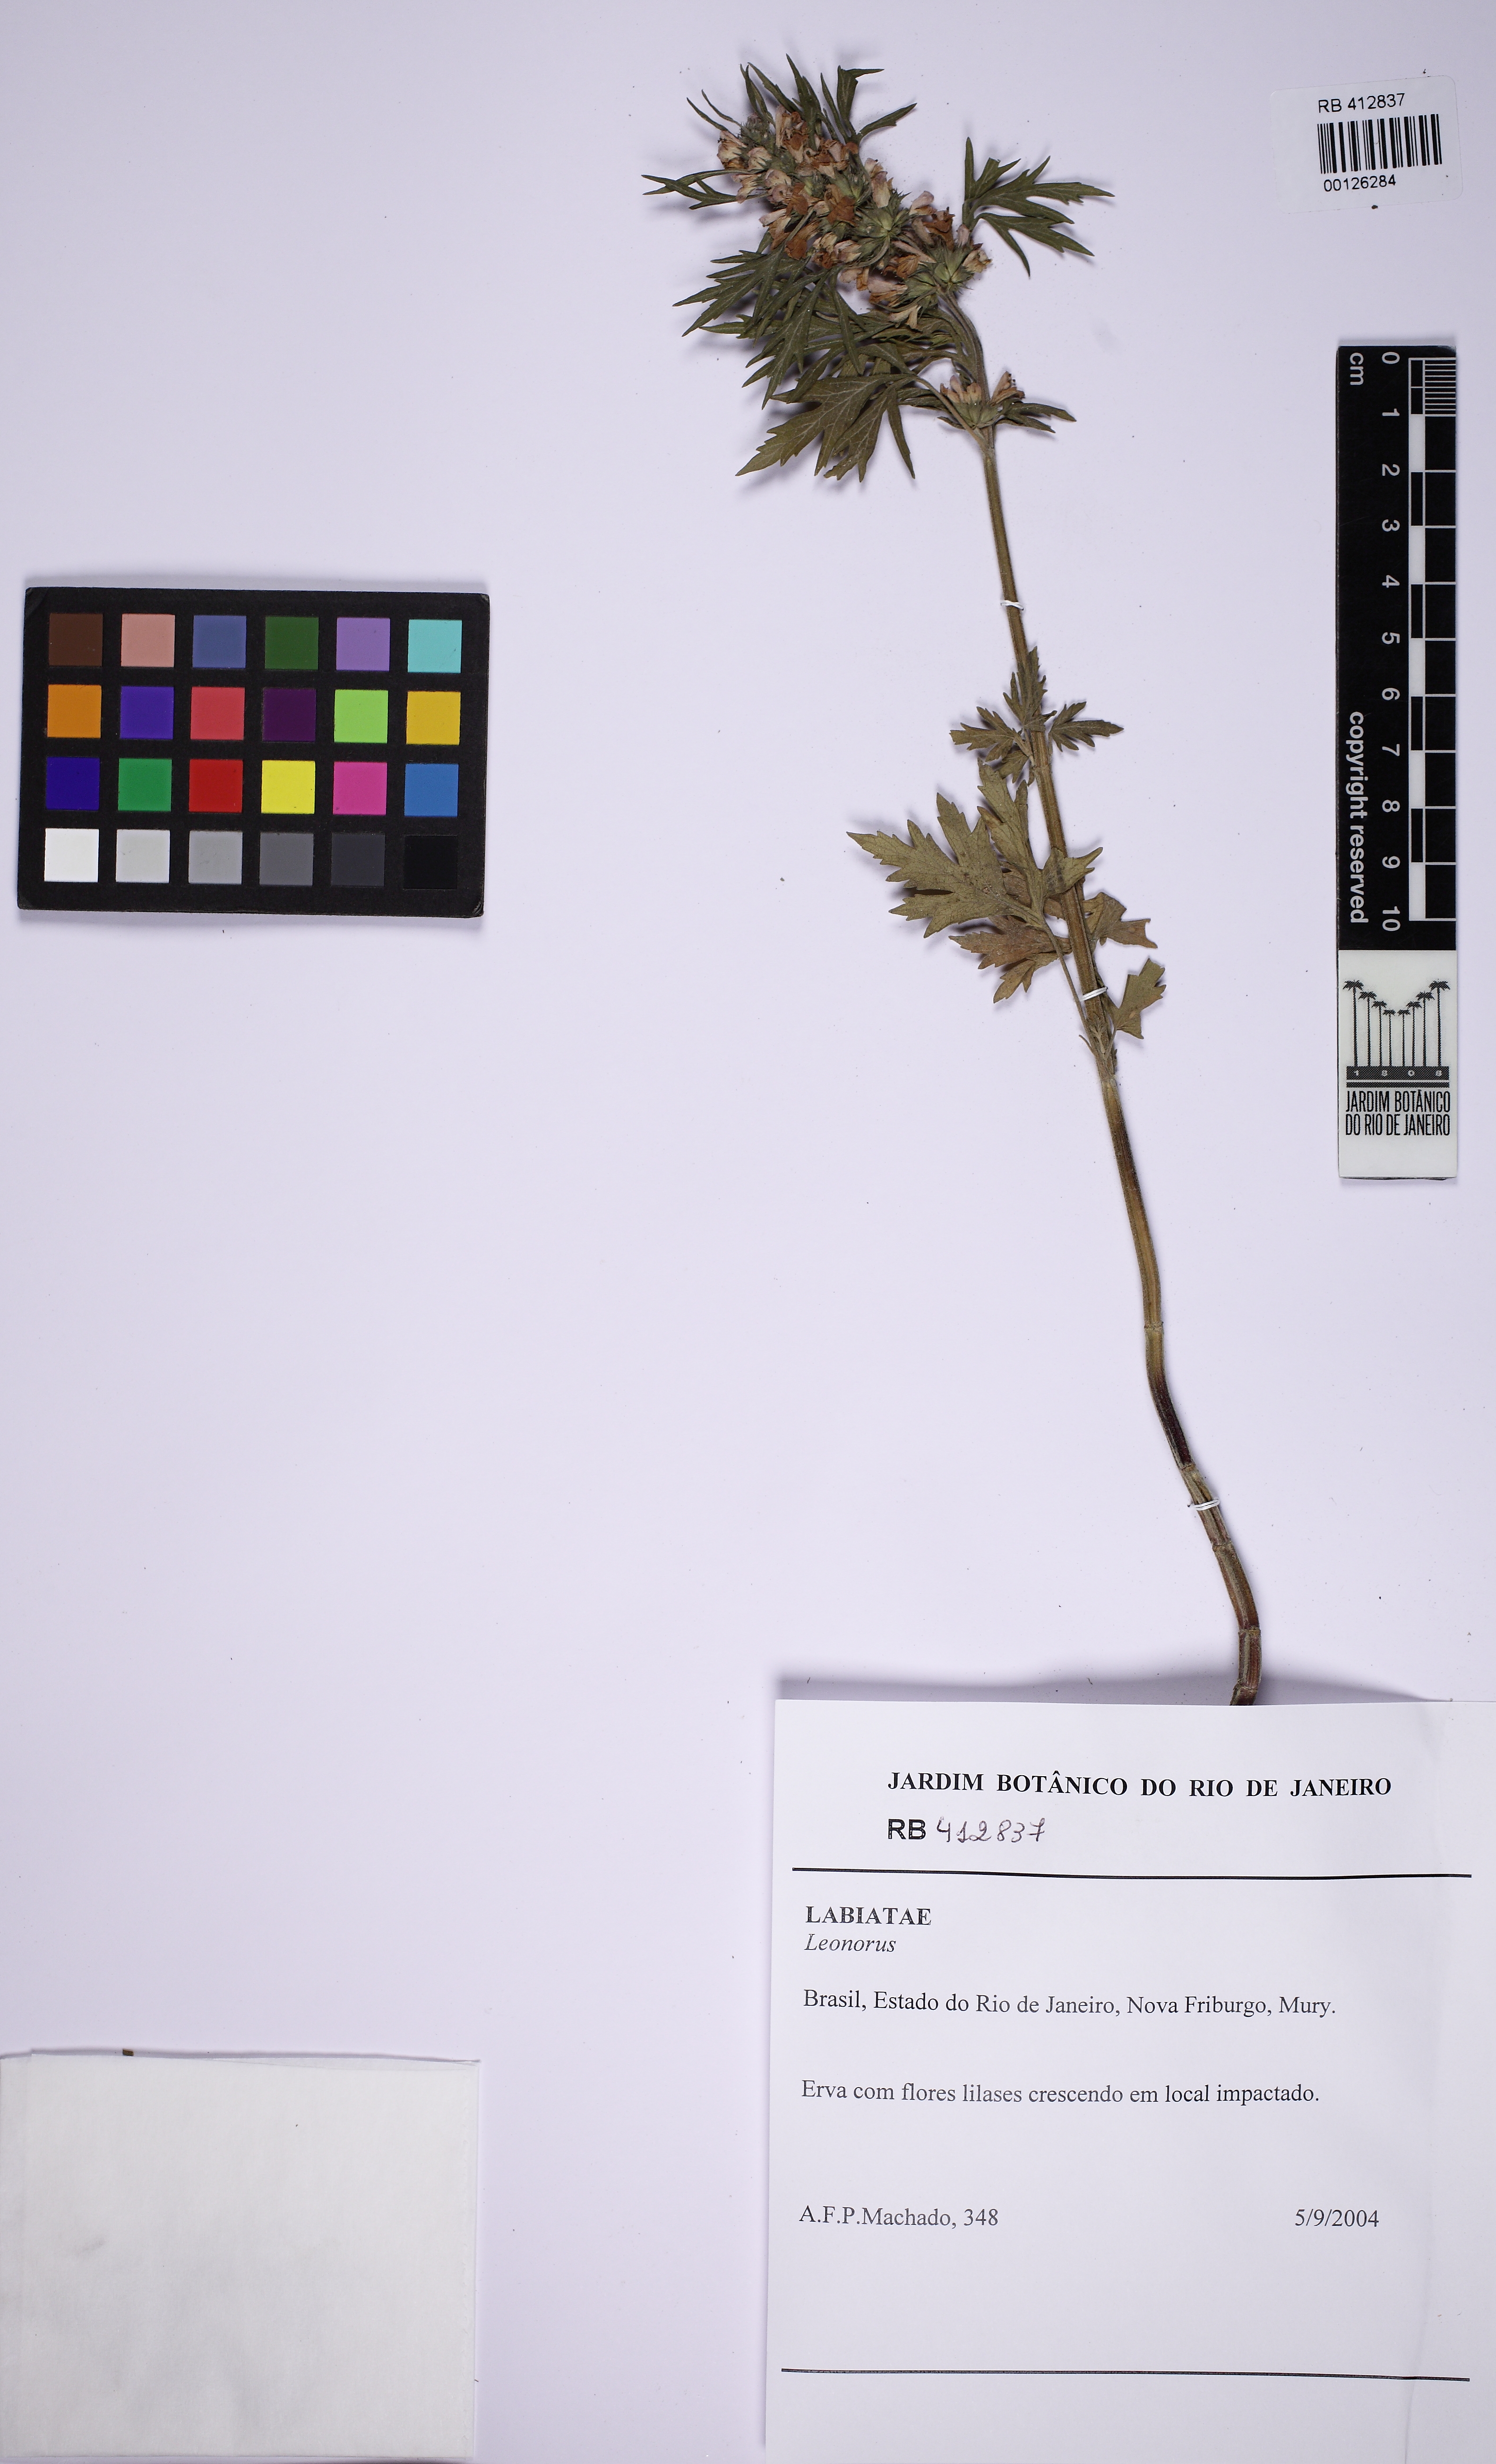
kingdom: Plantae
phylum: Tracheophyta
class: Magnoliopsida
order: Lamiales
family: Lamiaceae
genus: Leonurus
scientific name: Leonurus japonicus
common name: Honeyweed
